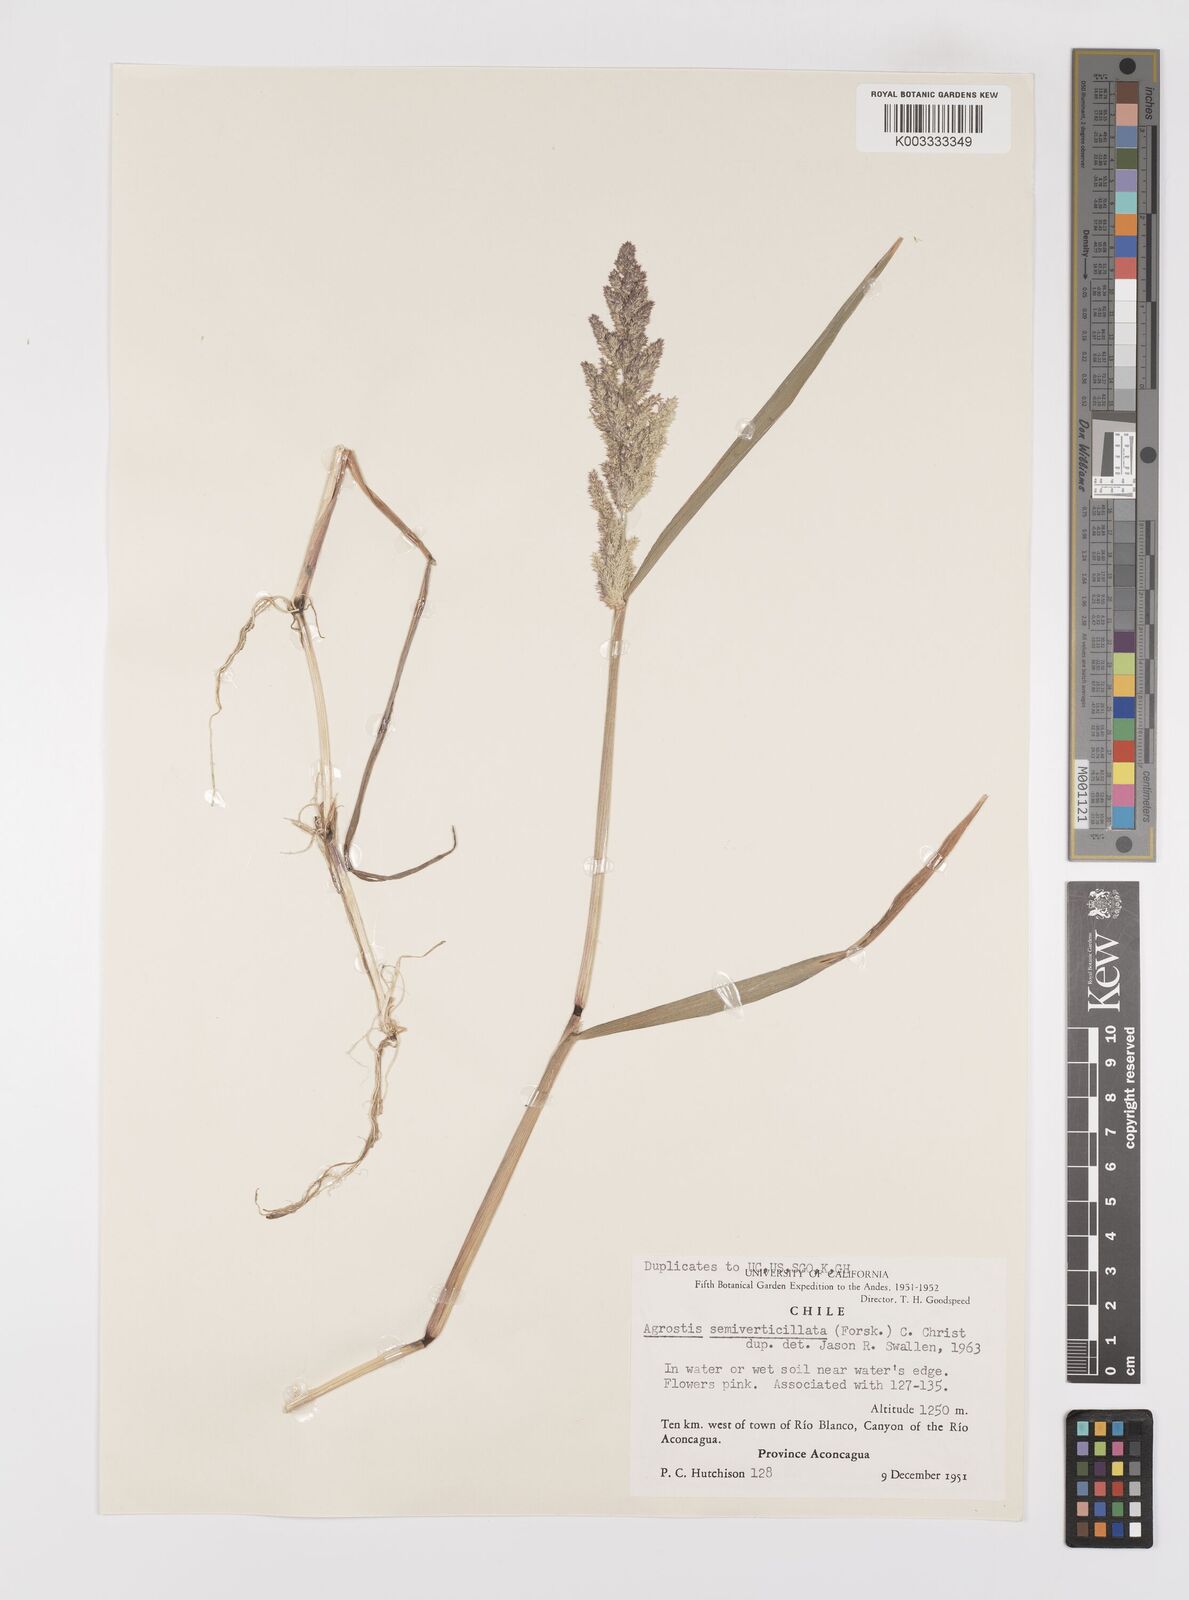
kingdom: Plantae
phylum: Tracheophyta
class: Liliopsida
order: Poales
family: Poaceae
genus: Polypogon
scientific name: Polypogon viridis
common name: Water bent
